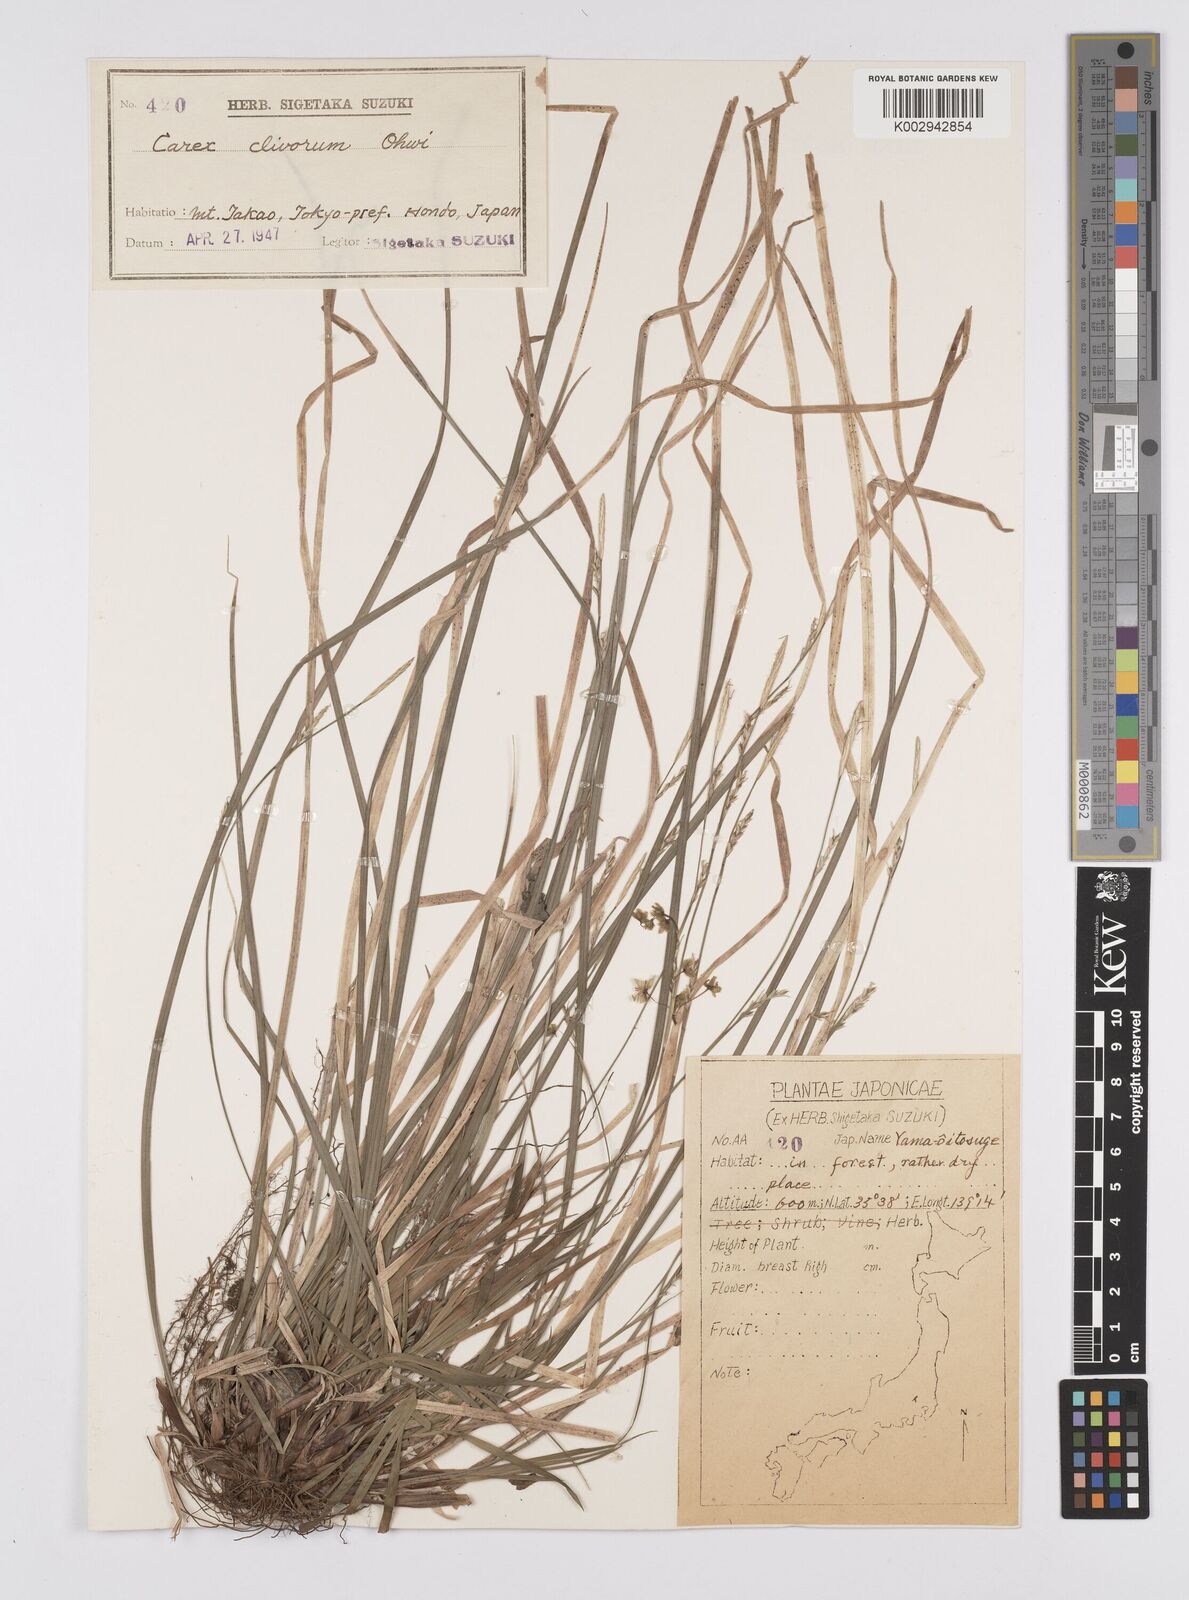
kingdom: Plantae
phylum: Tracheophyta
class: Liliopsida
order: Poales
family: Cyperaceae
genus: Carex
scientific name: Carex clivorum
